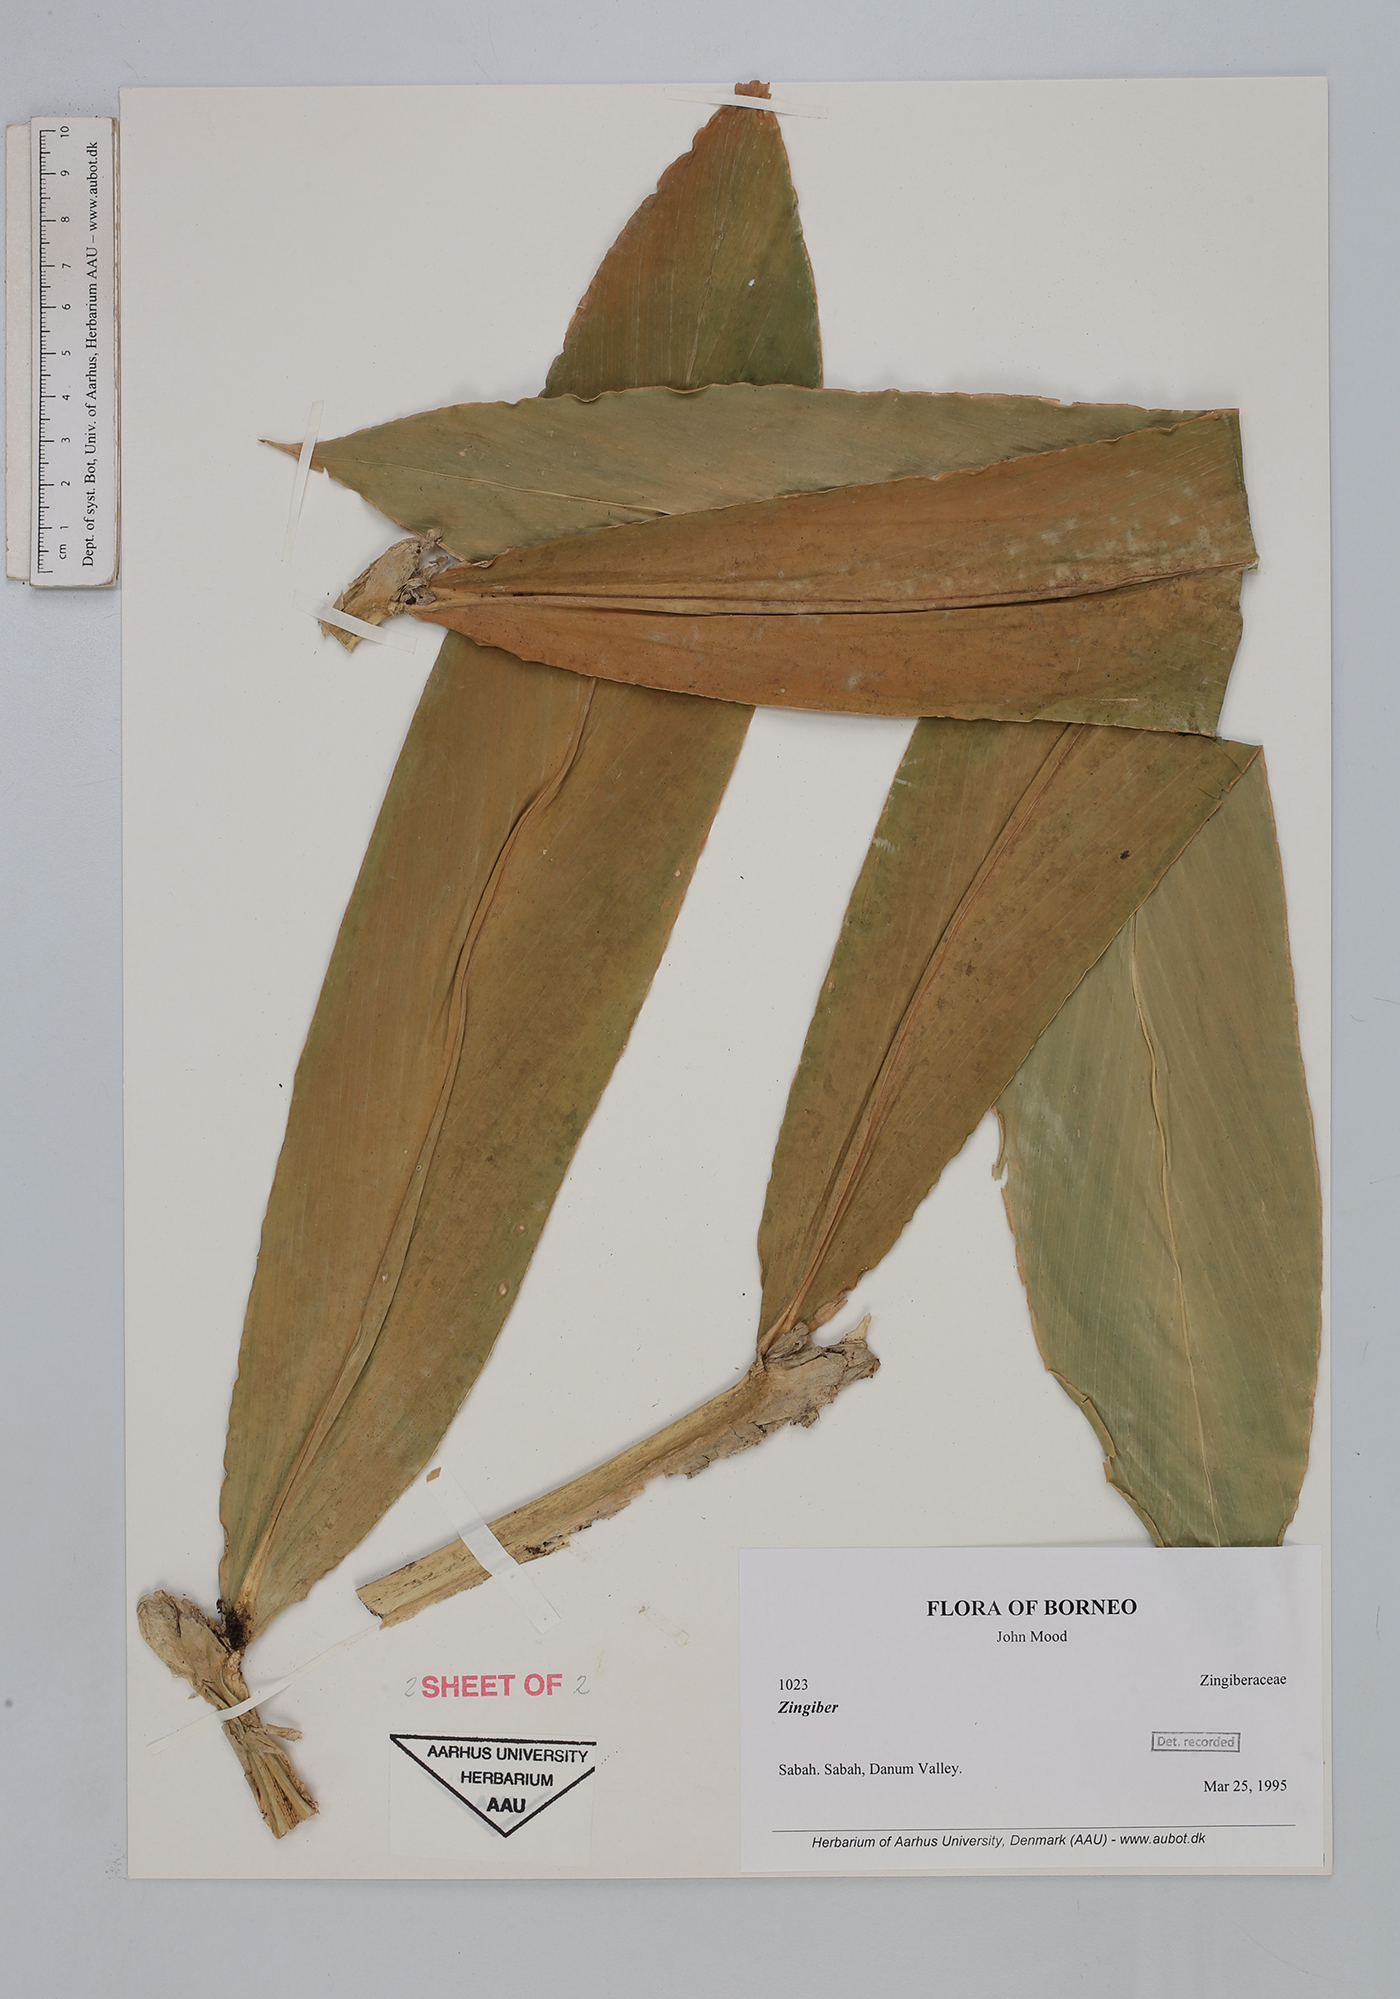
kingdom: Plantae
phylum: Tracheophyta
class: Liliopsida
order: Zingiberales
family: Zingiberaceae
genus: Zingiber
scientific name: Zingiber
